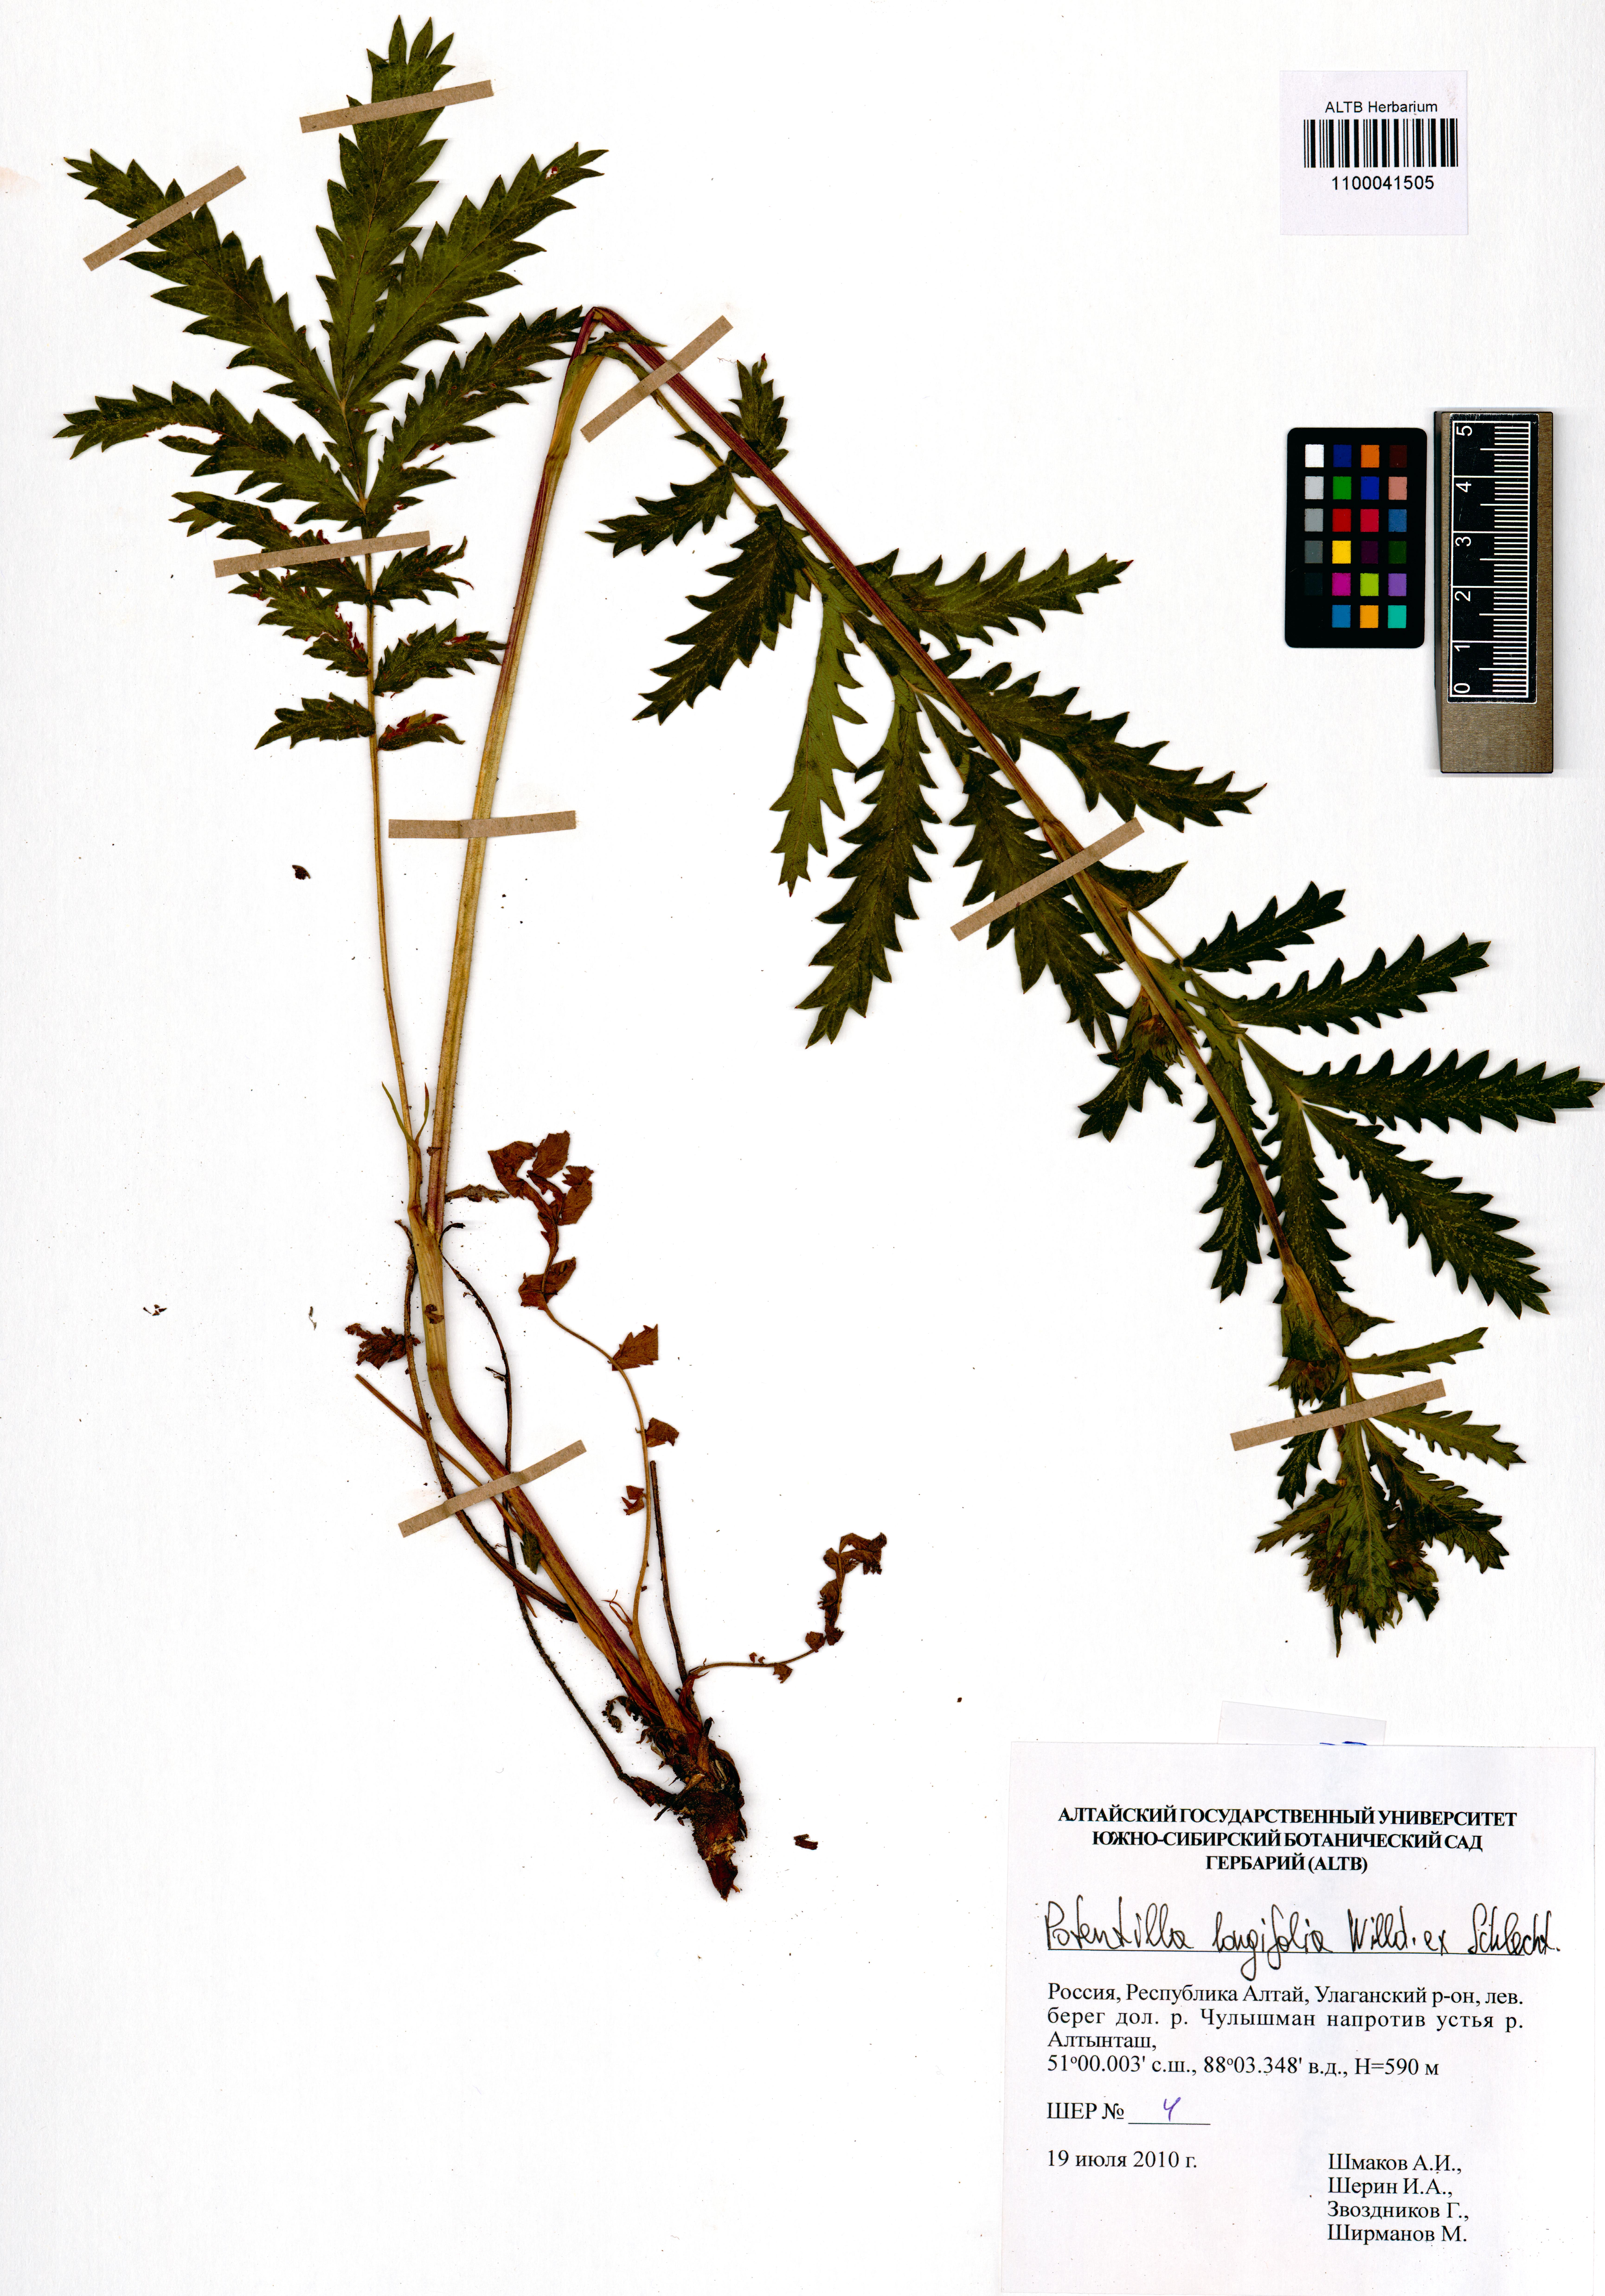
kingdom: Plantae
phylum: Tracheophyta
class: Magnoliopsida
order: Rosales
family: Rosaceae
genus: Potentilla
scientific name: Potentilla longifolia
